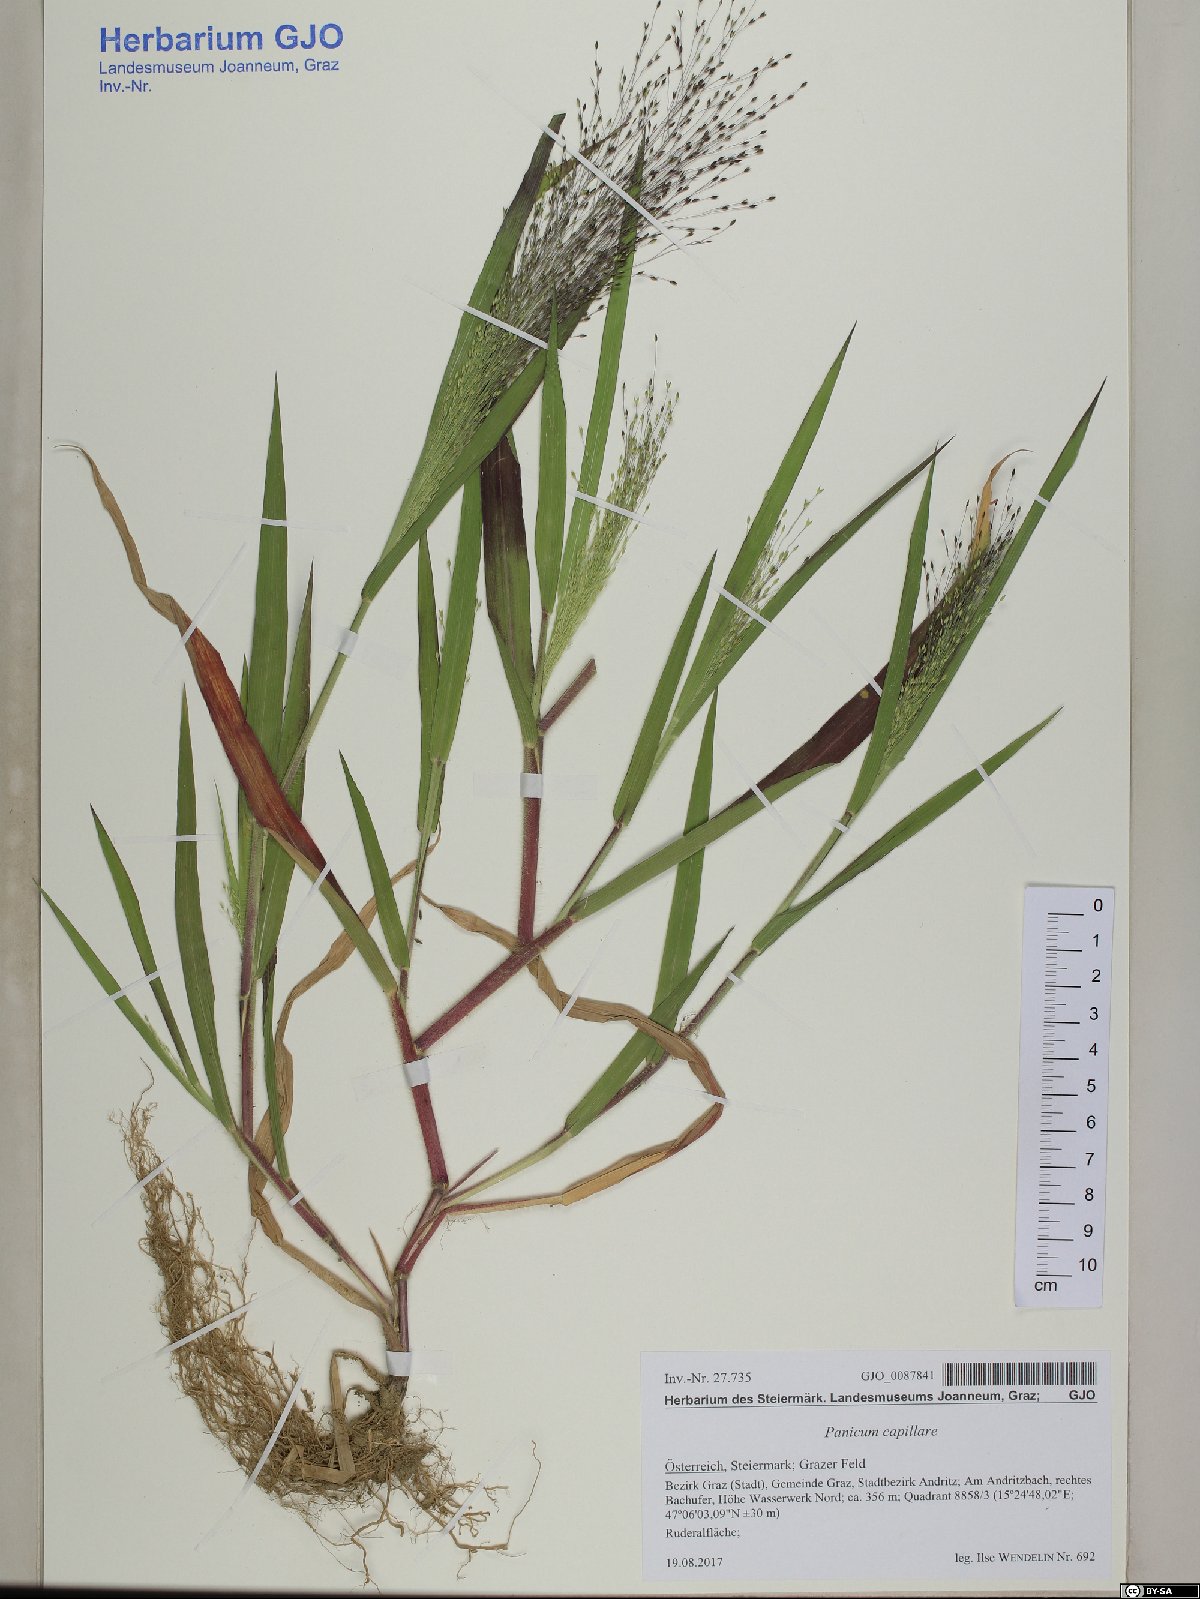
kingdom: Plantae
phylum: Tracheophyta
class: Liliopsida
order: Poales
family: Poaceae
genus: Panicum
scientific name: Panicum capillare
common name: Witch-grass
